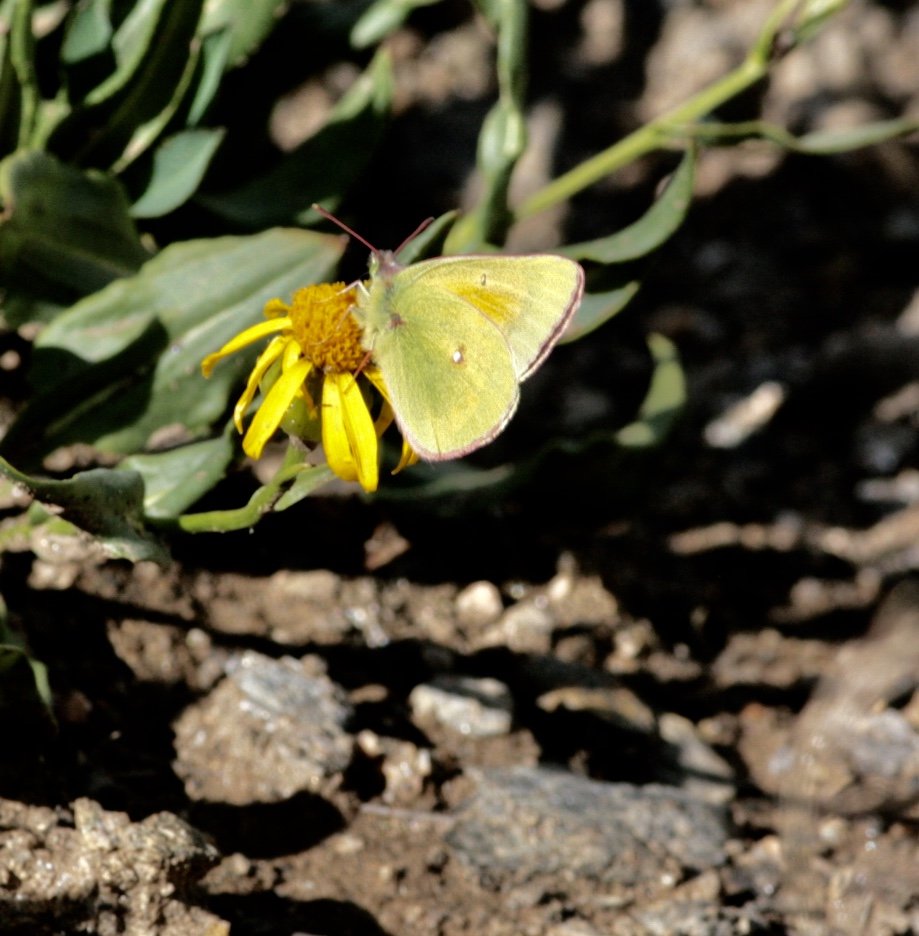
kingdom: Animalia
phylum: Arthropoda
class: Insecta
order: Lepidoptera
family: Pieridae
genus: Colias
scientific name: Colias meadii
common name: Mead's Sulphur
